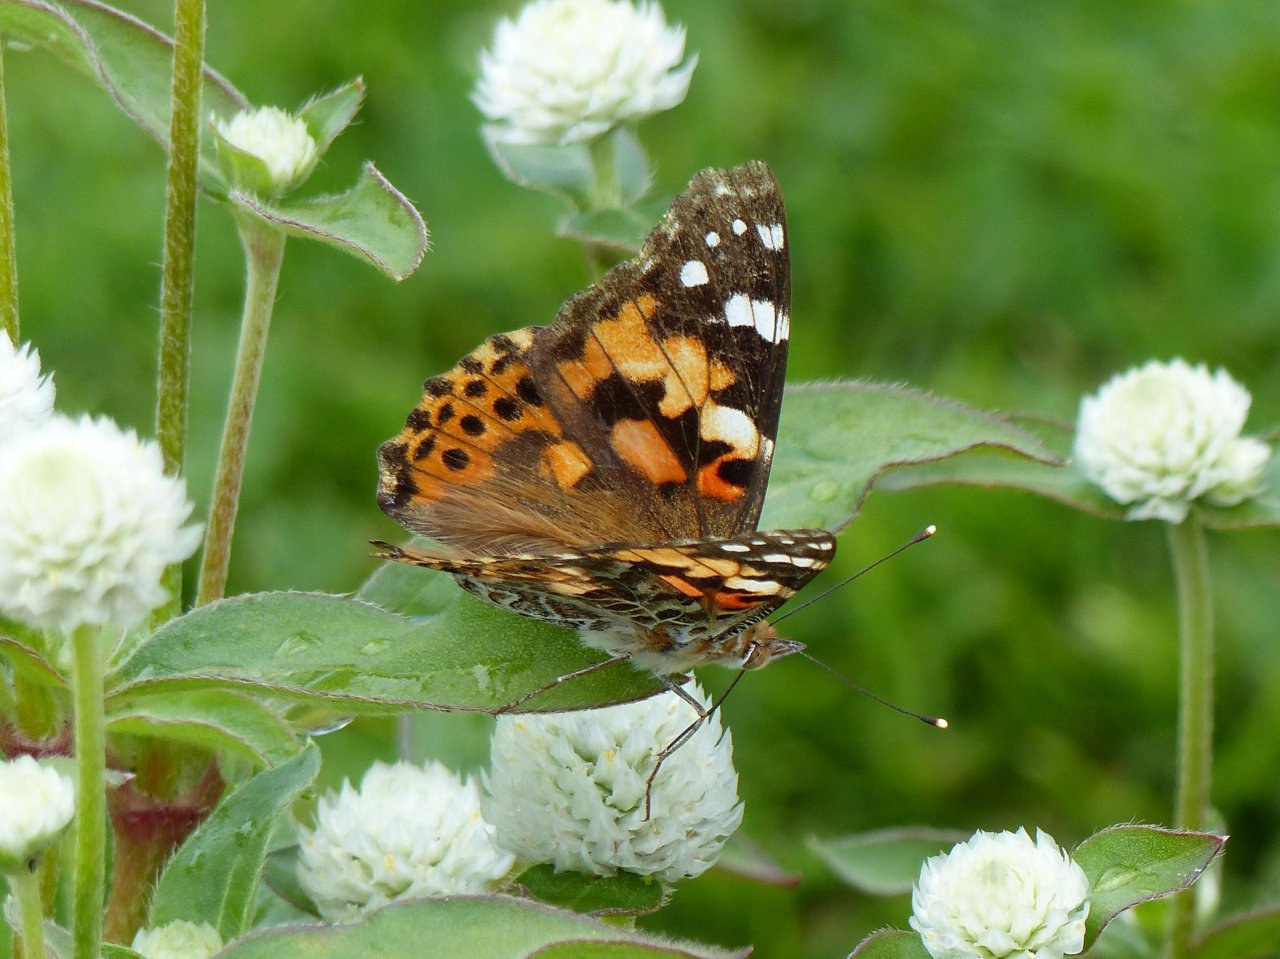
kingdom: Animalia
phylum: Arthropoda
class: Insecta
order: Lepidoptera
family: Nymphalidae
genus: Vanessa
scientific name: Vanessa cardui
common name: Painted Lady
